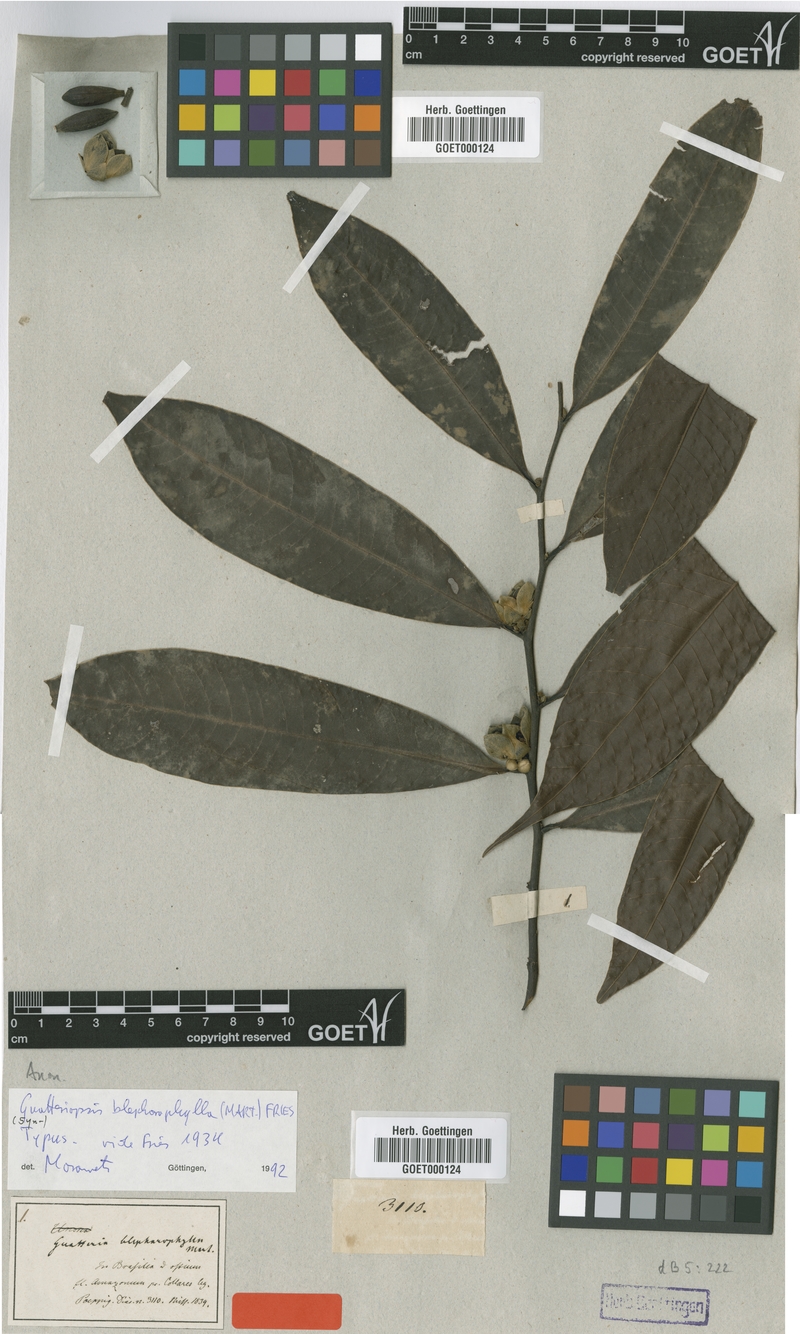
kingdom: Plantae
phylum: Tracheophyta
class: Magnoliopsida
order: Magnoliales
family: Annonaceae
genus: Guatteria
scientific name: Guatteria blepharophylla
